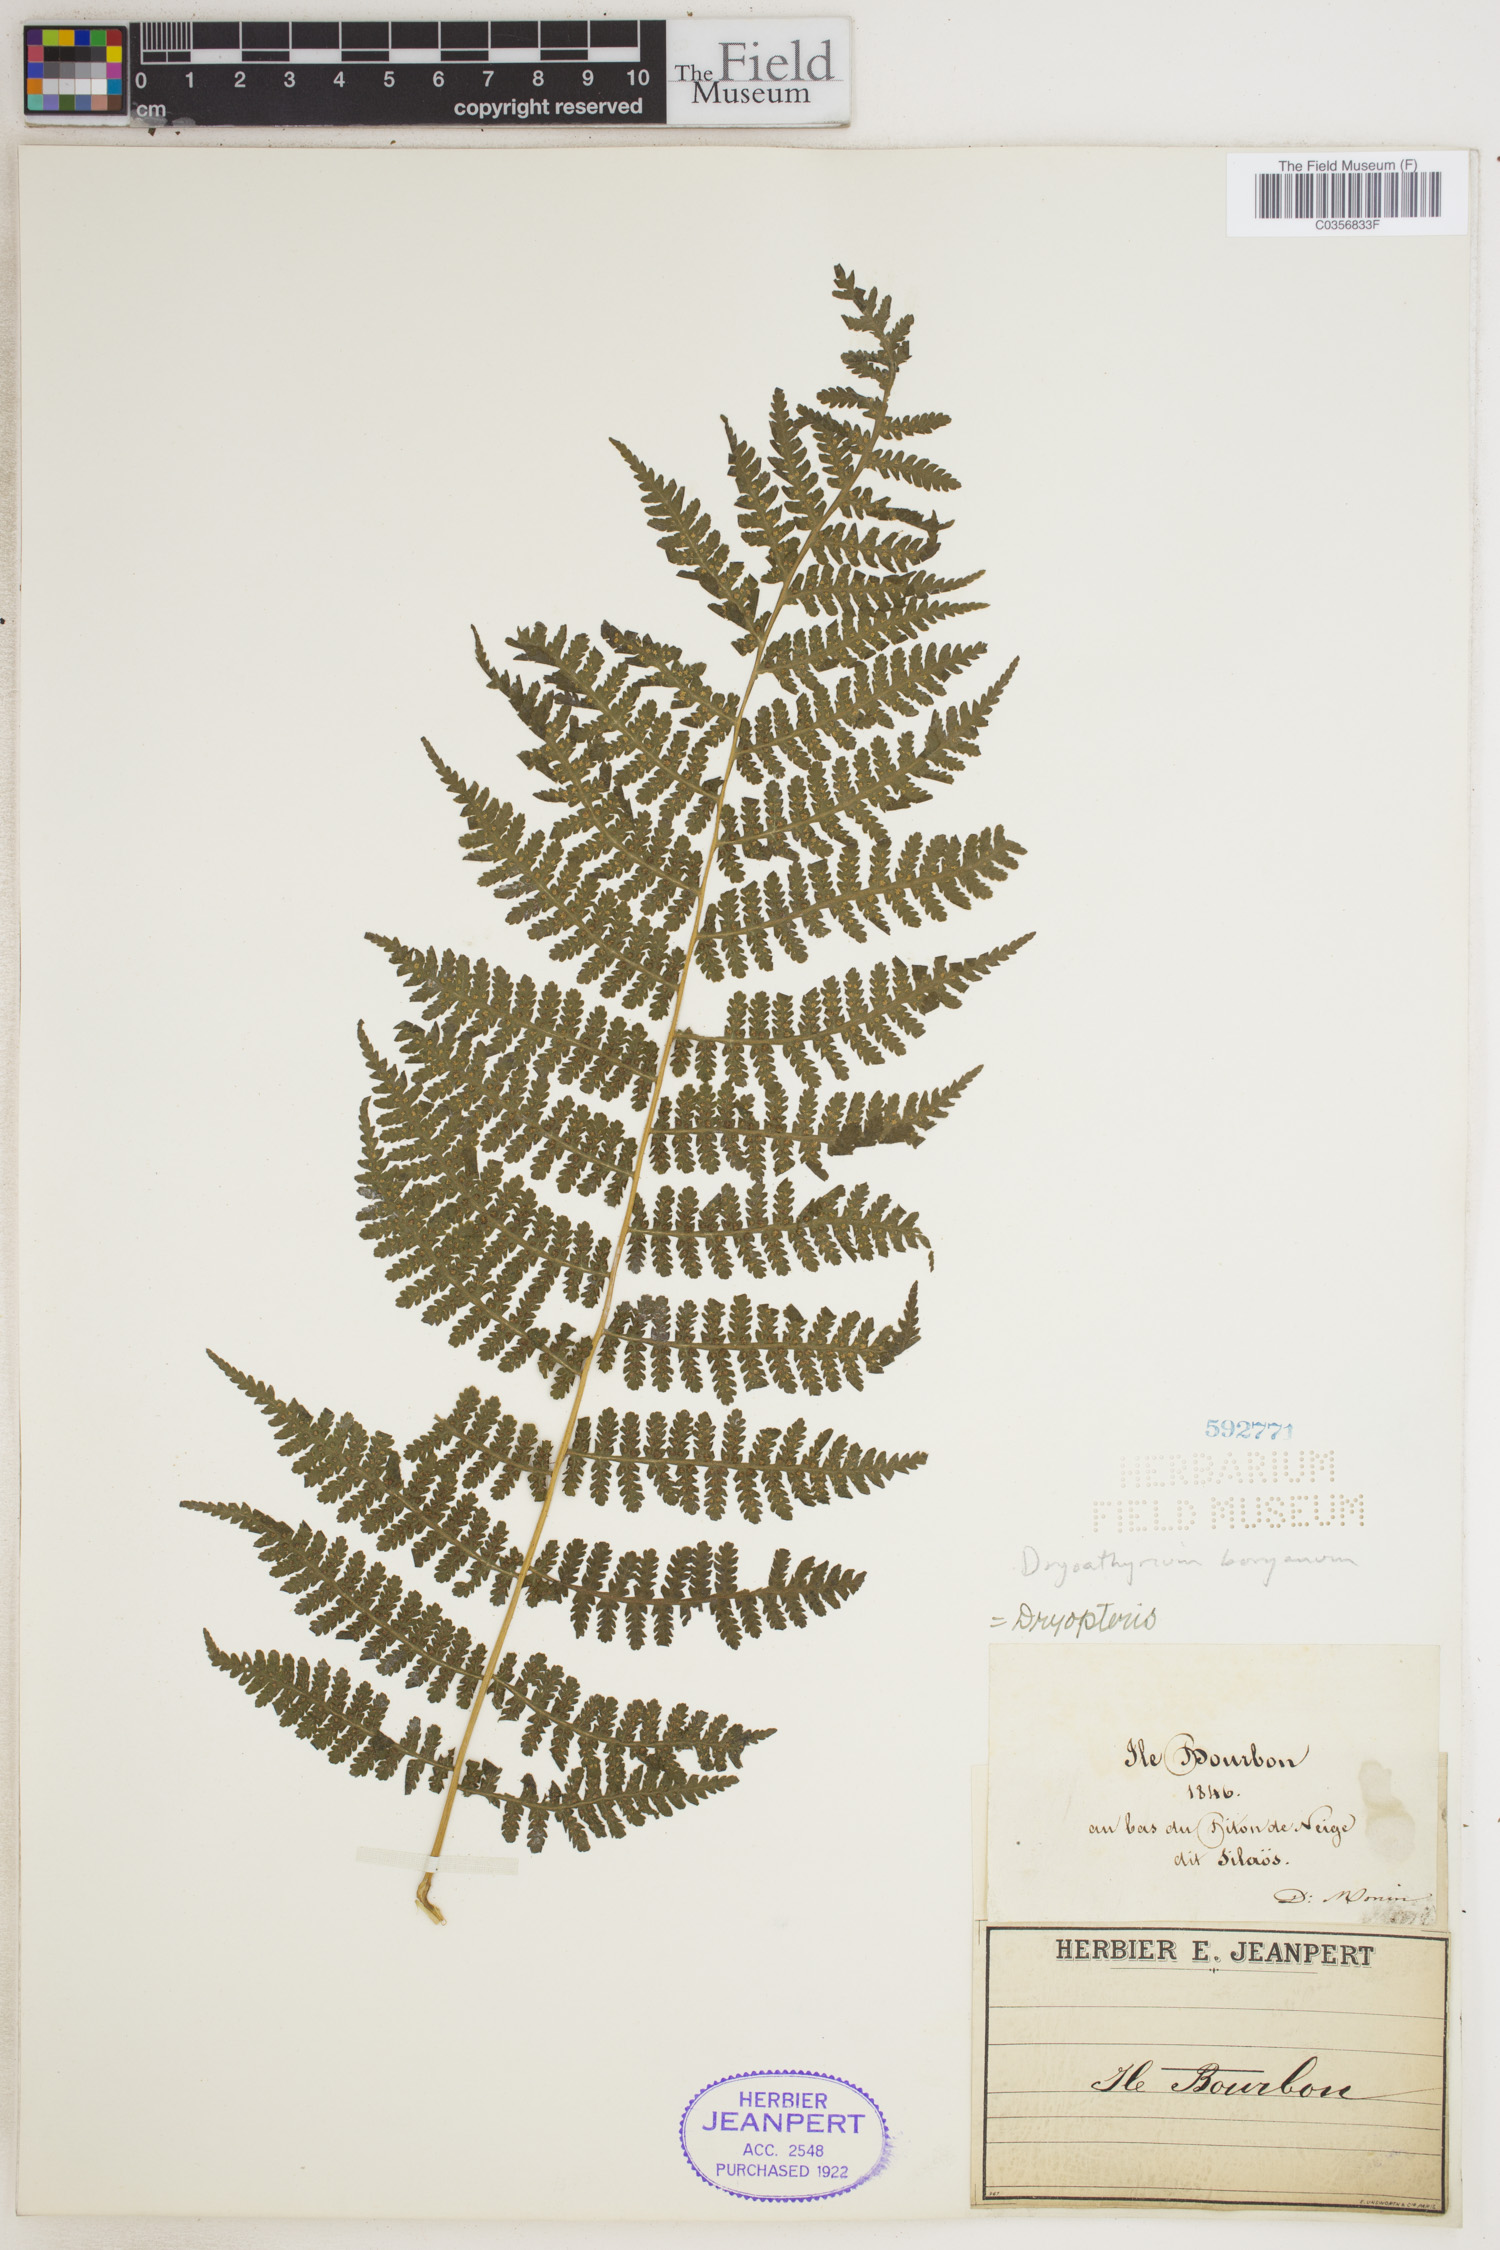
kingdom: Plantae
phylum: Tracheophyta
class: Polypodiopsida
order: Polypodiales
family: Athyriaceae
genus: Deparia
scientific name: Deparia boryana
